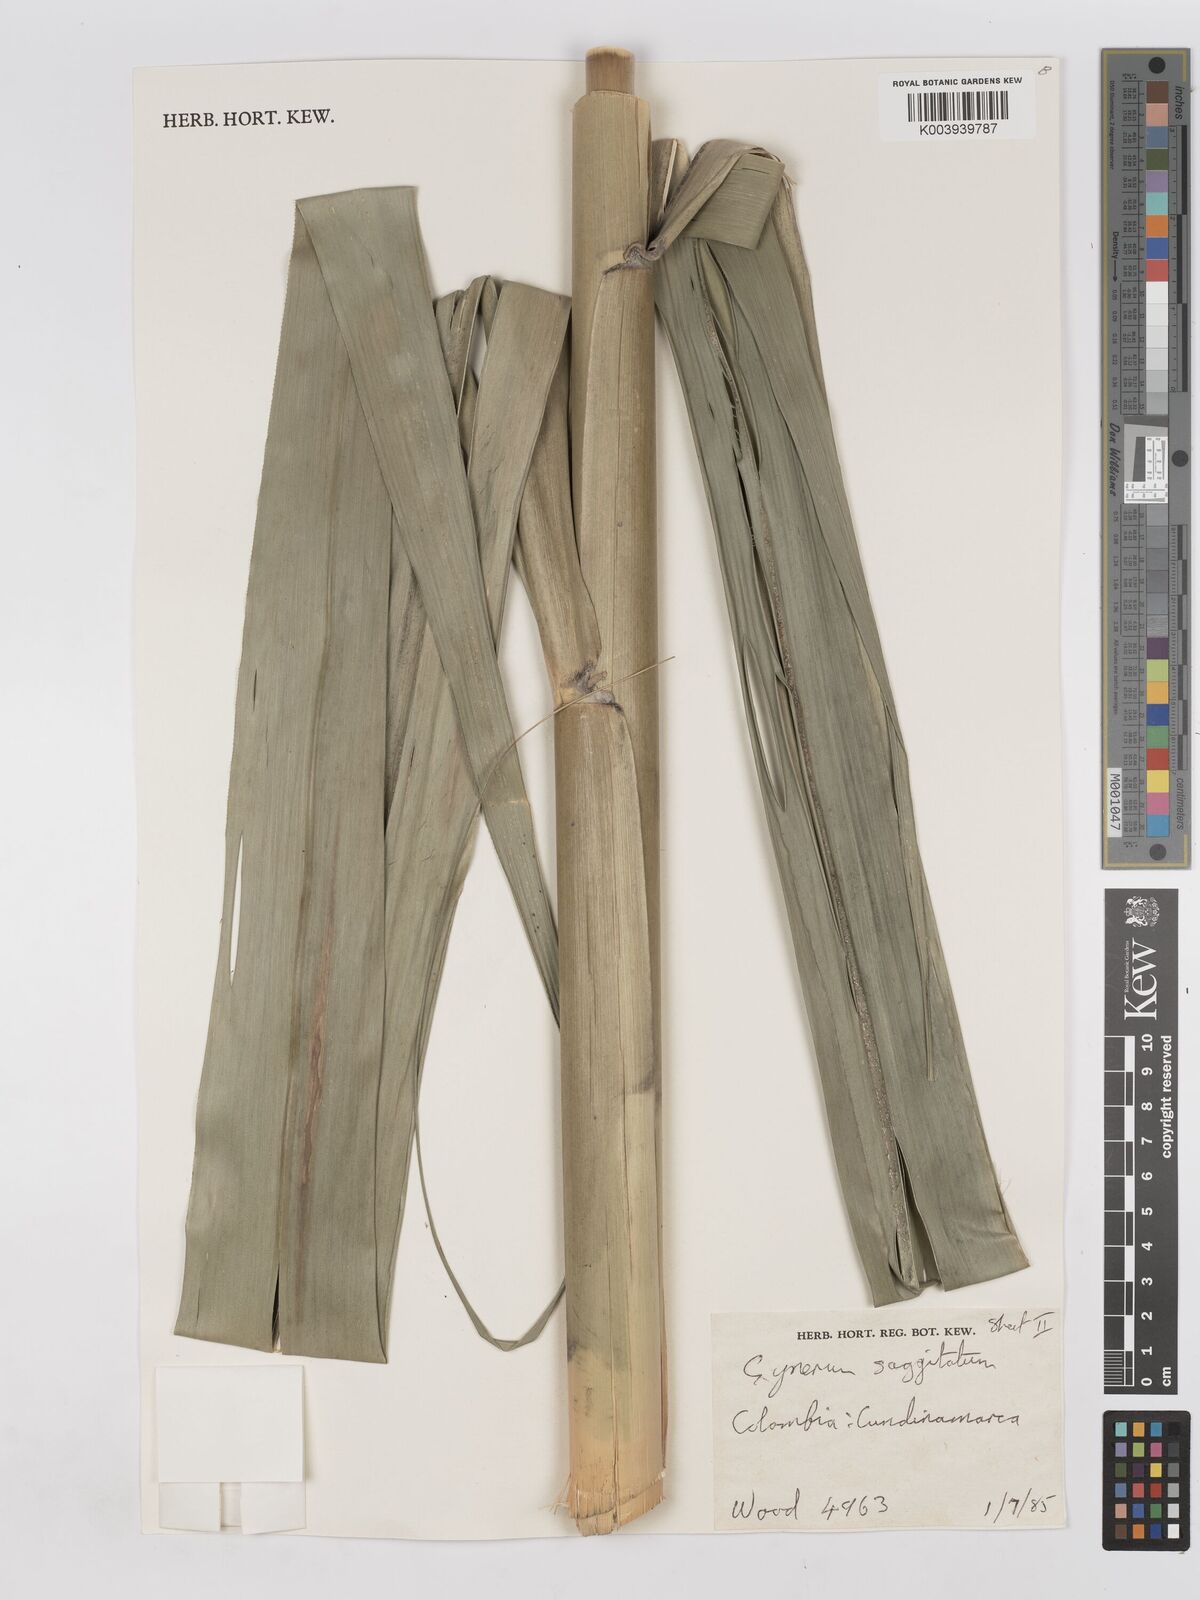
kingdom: Plantae
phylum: Tracheophyta
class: Liliopsida
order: Poales
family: Poaceae
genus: Gynerium
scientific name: Gynerium sagittatum
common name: Wild cane
